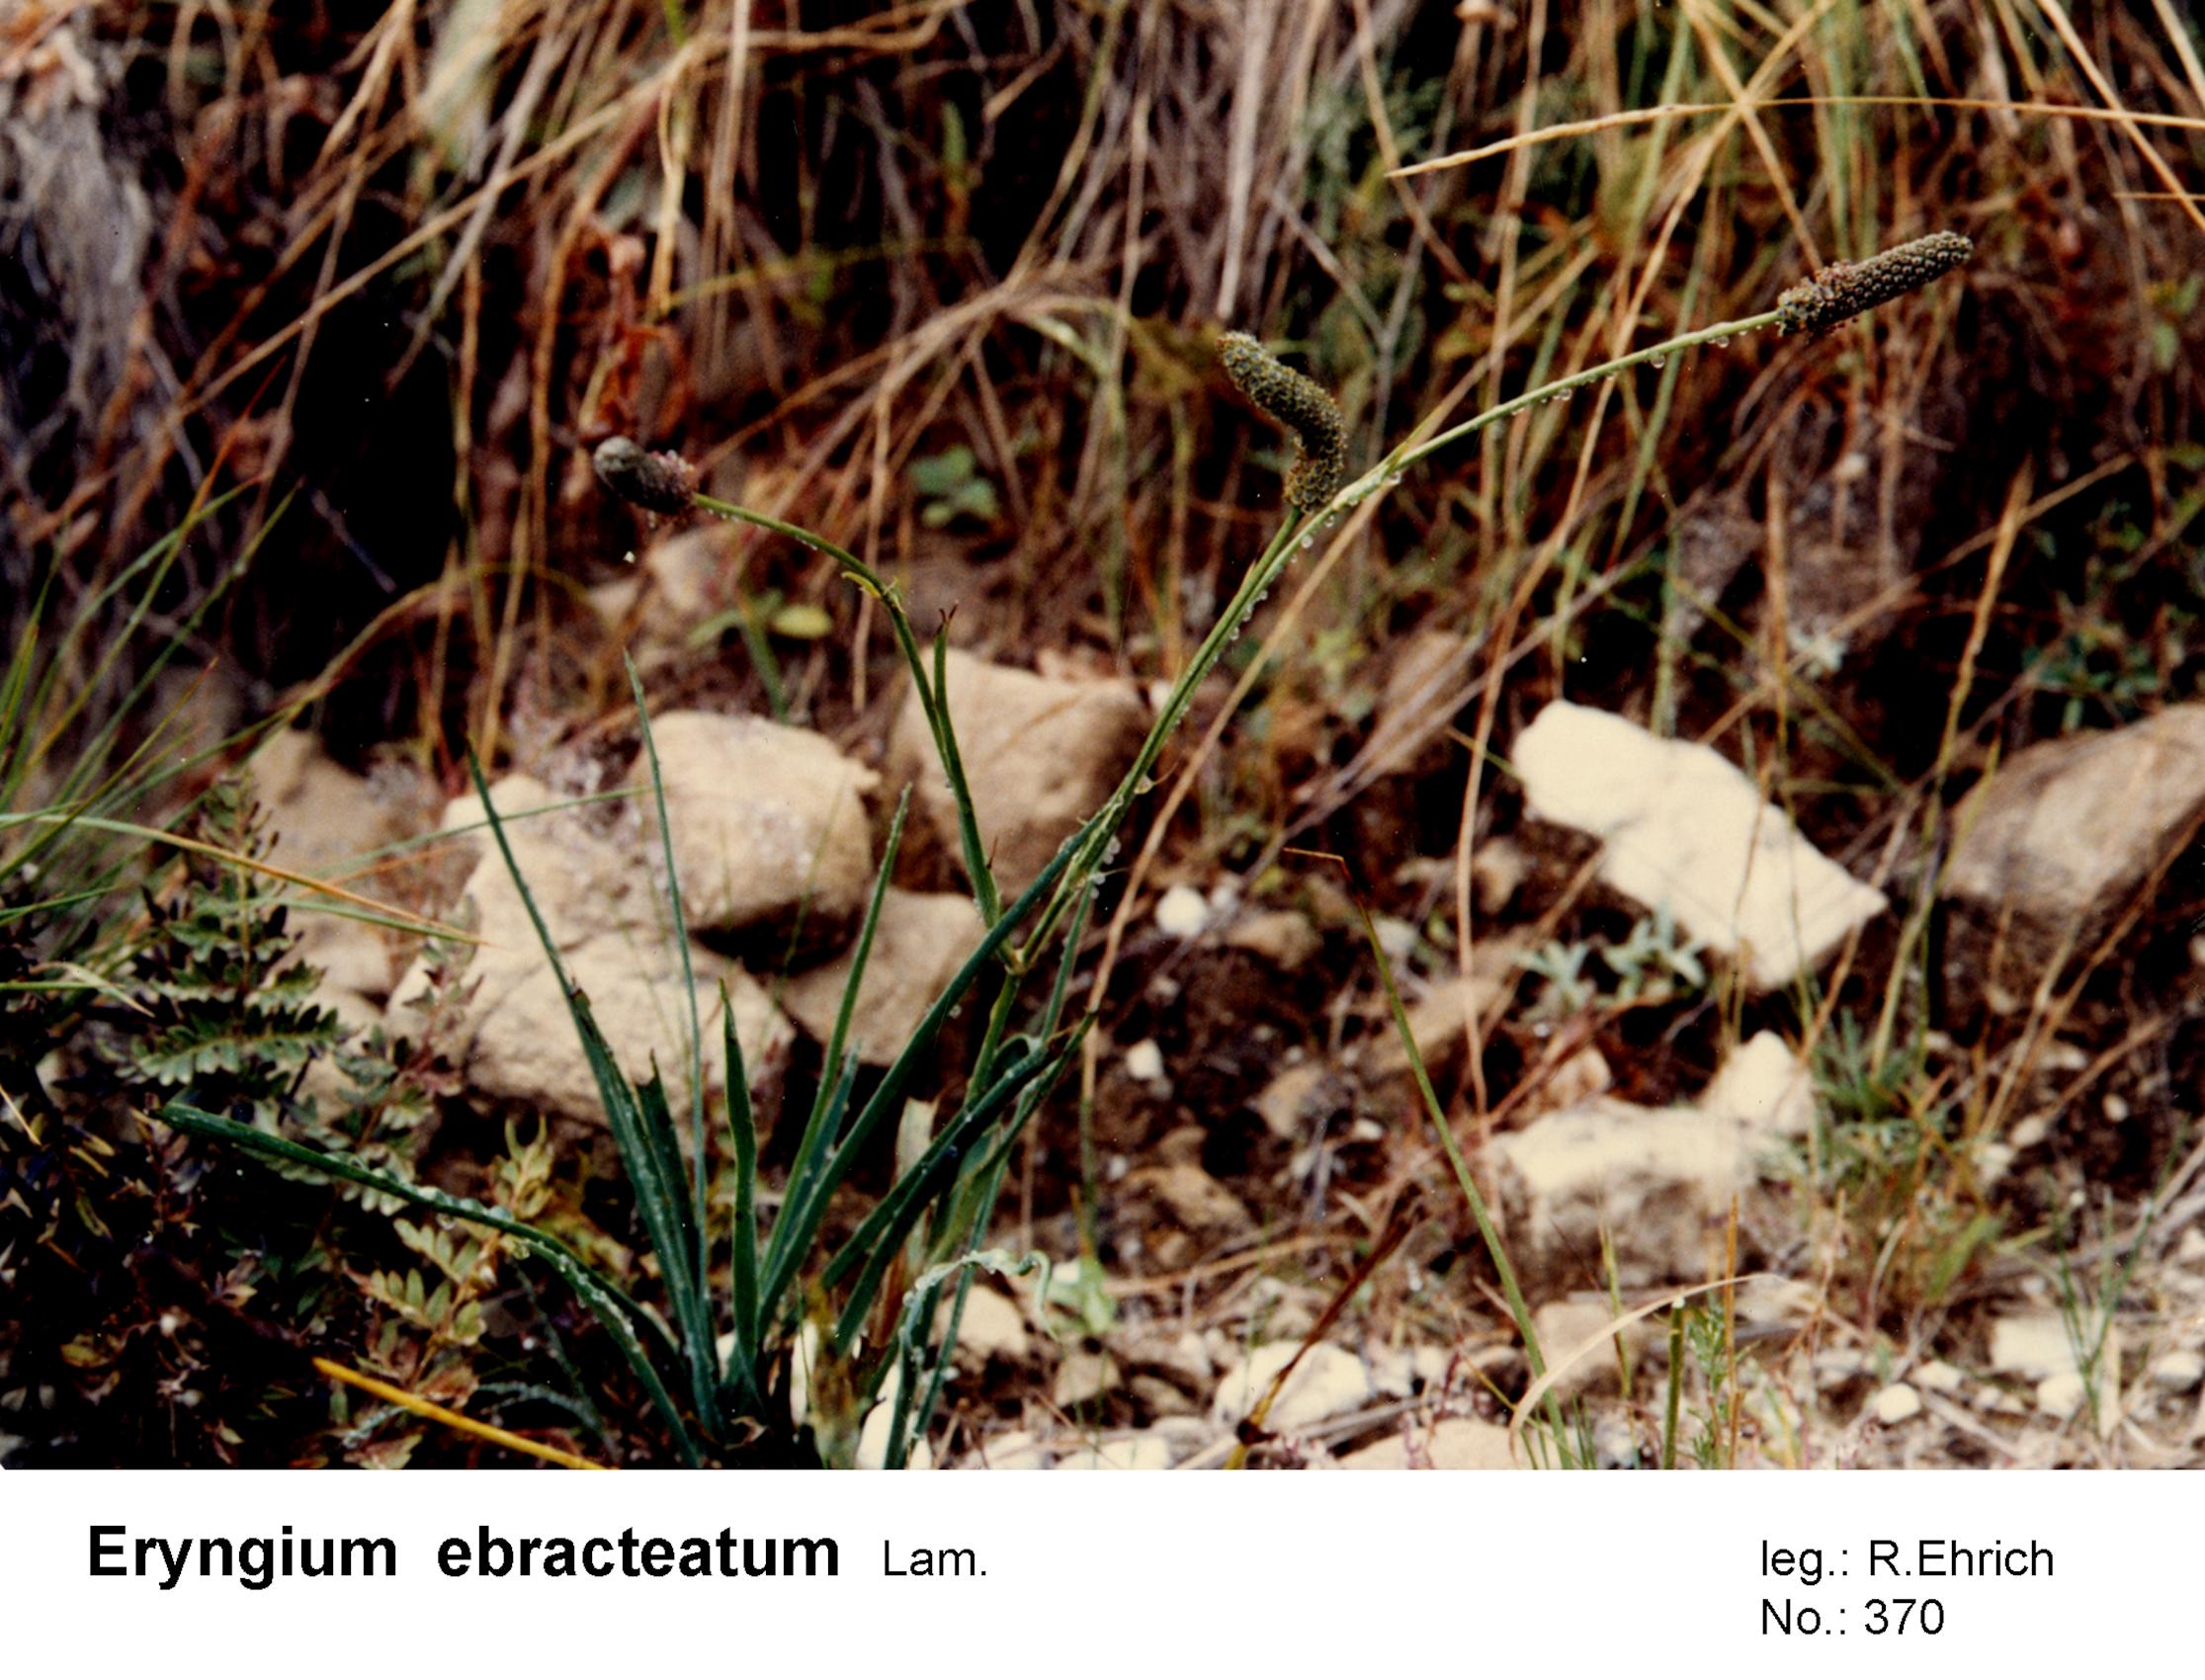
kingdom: Plantae
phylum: Tracheophyta
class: Magnoliopsida
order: Apiales
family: Apiaceae
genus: Eryngium
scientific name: Eryngium ebracteatum
